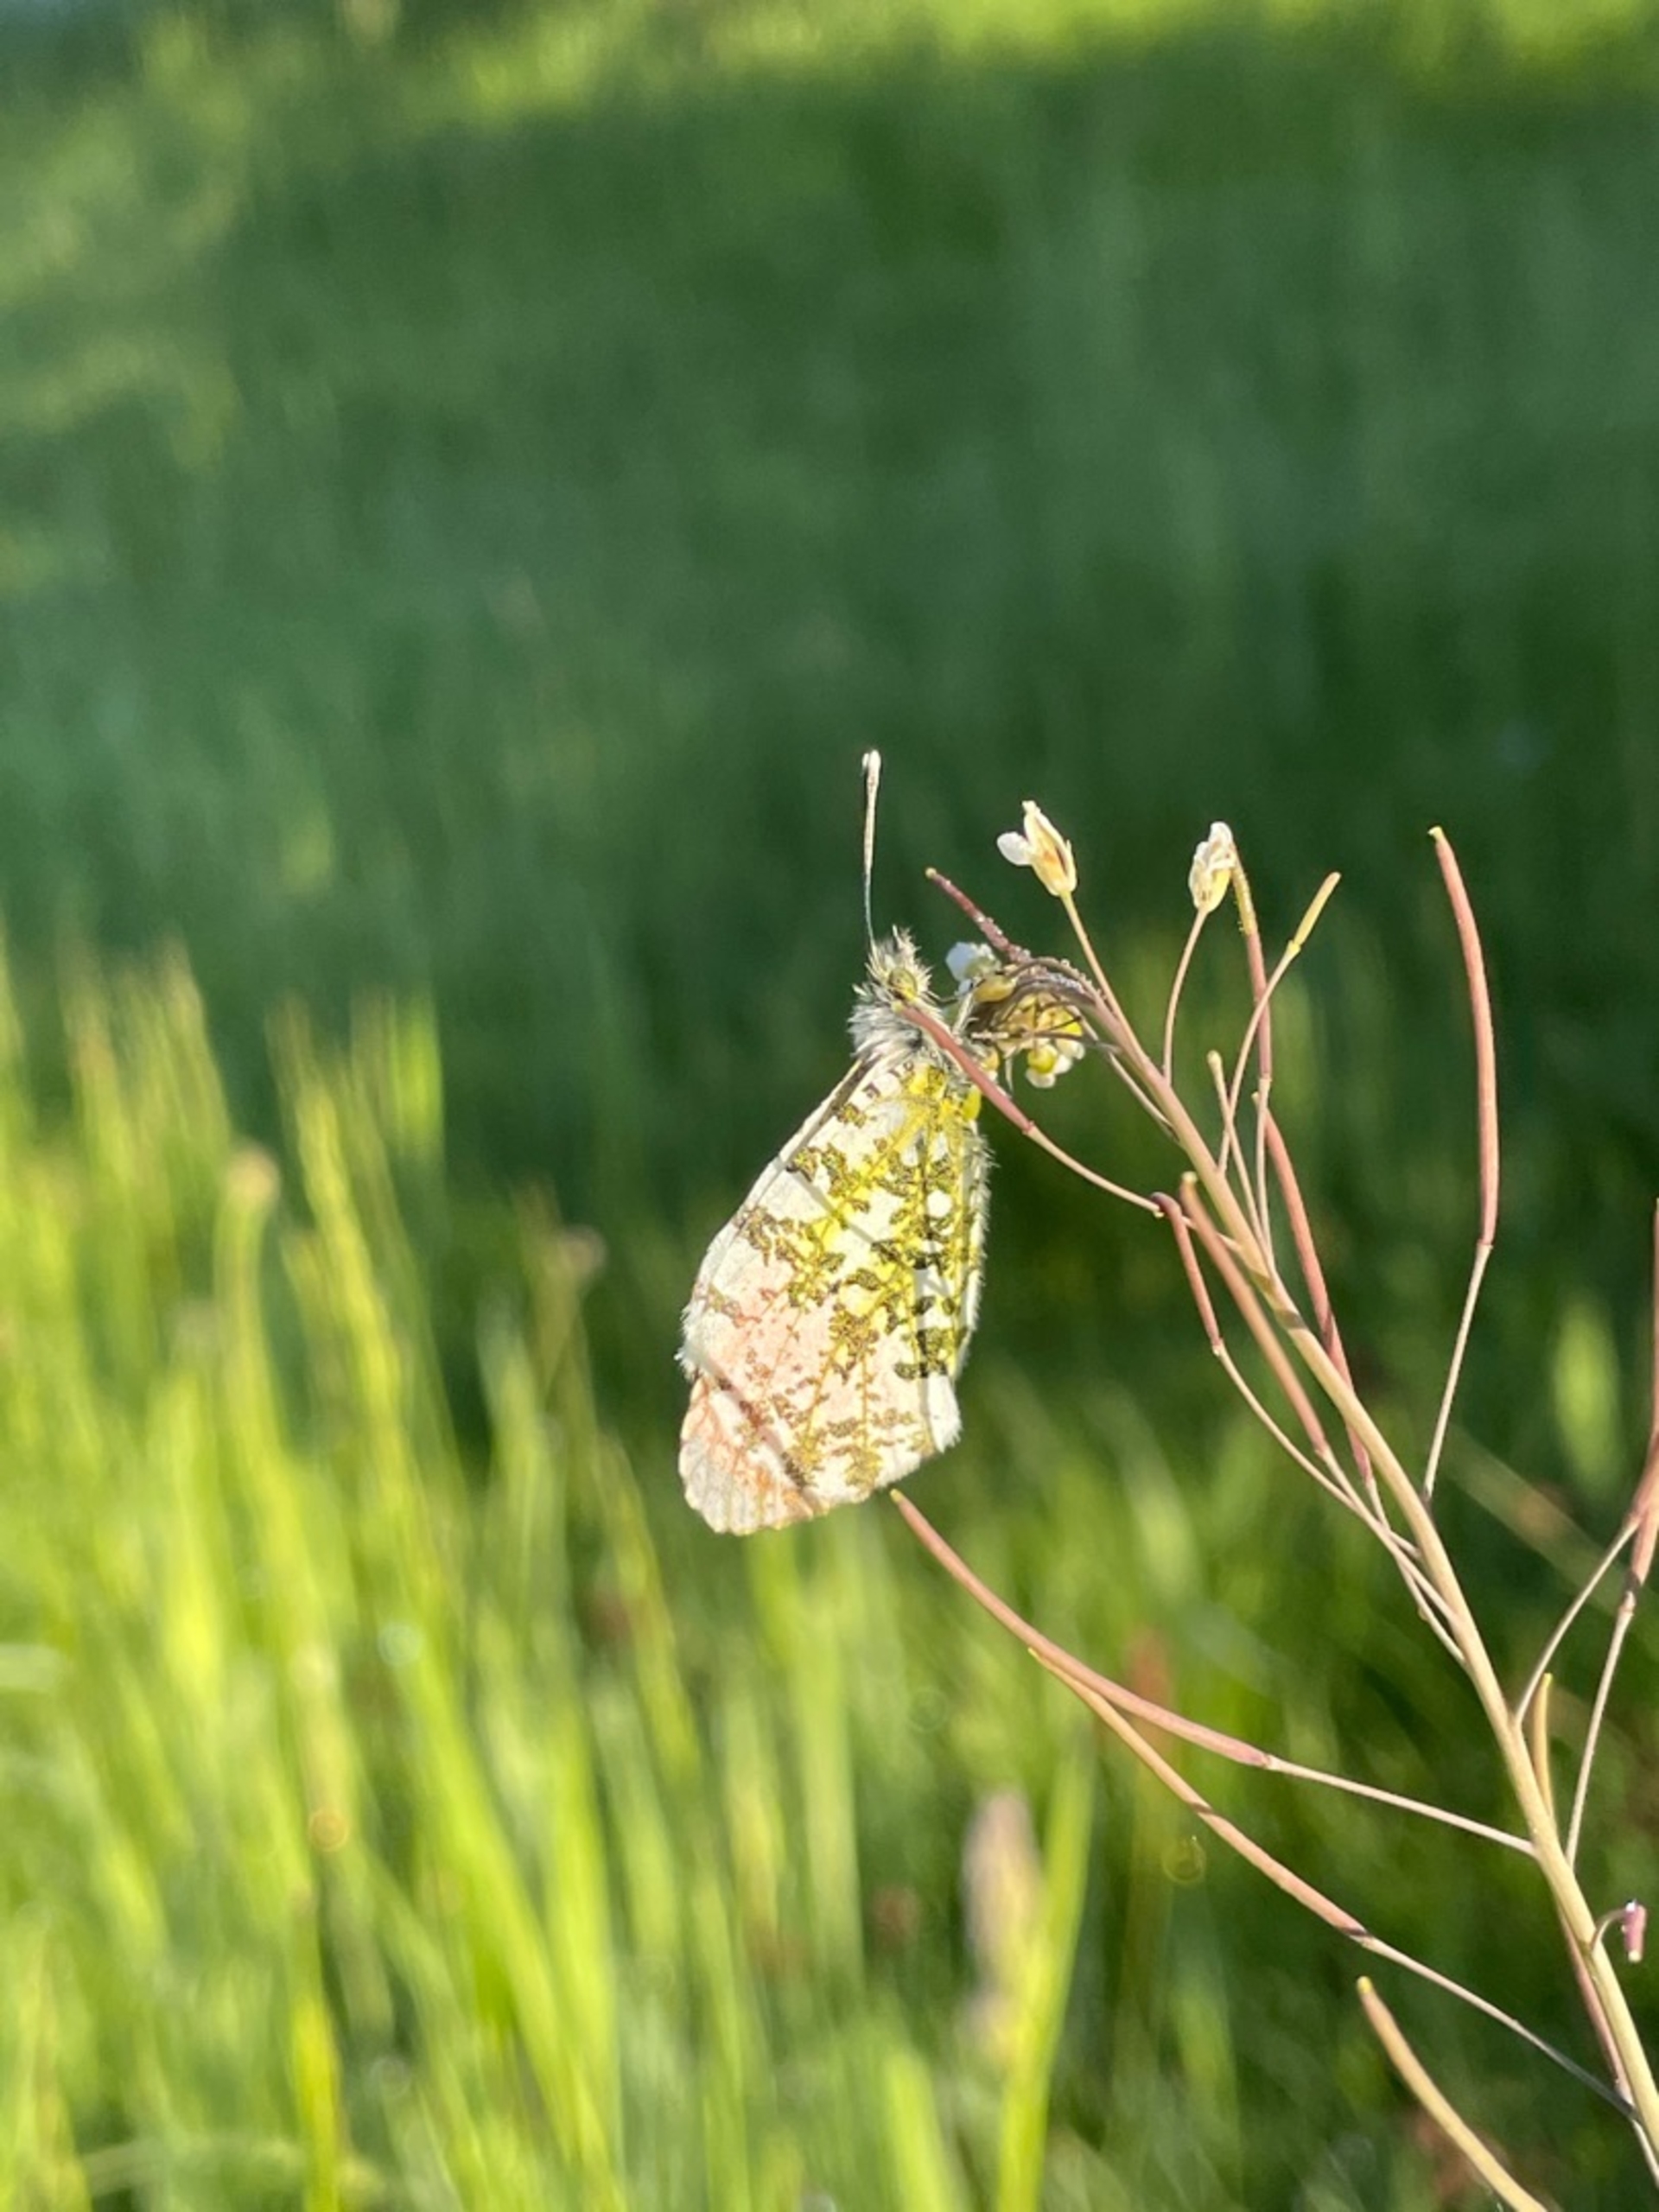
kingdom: Animalia
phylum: Arthropoda
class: Insecta
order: Lepidoptera
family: Pieridae
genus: Anthocharis
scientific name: Anthocharis cardamines
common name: Aurora
